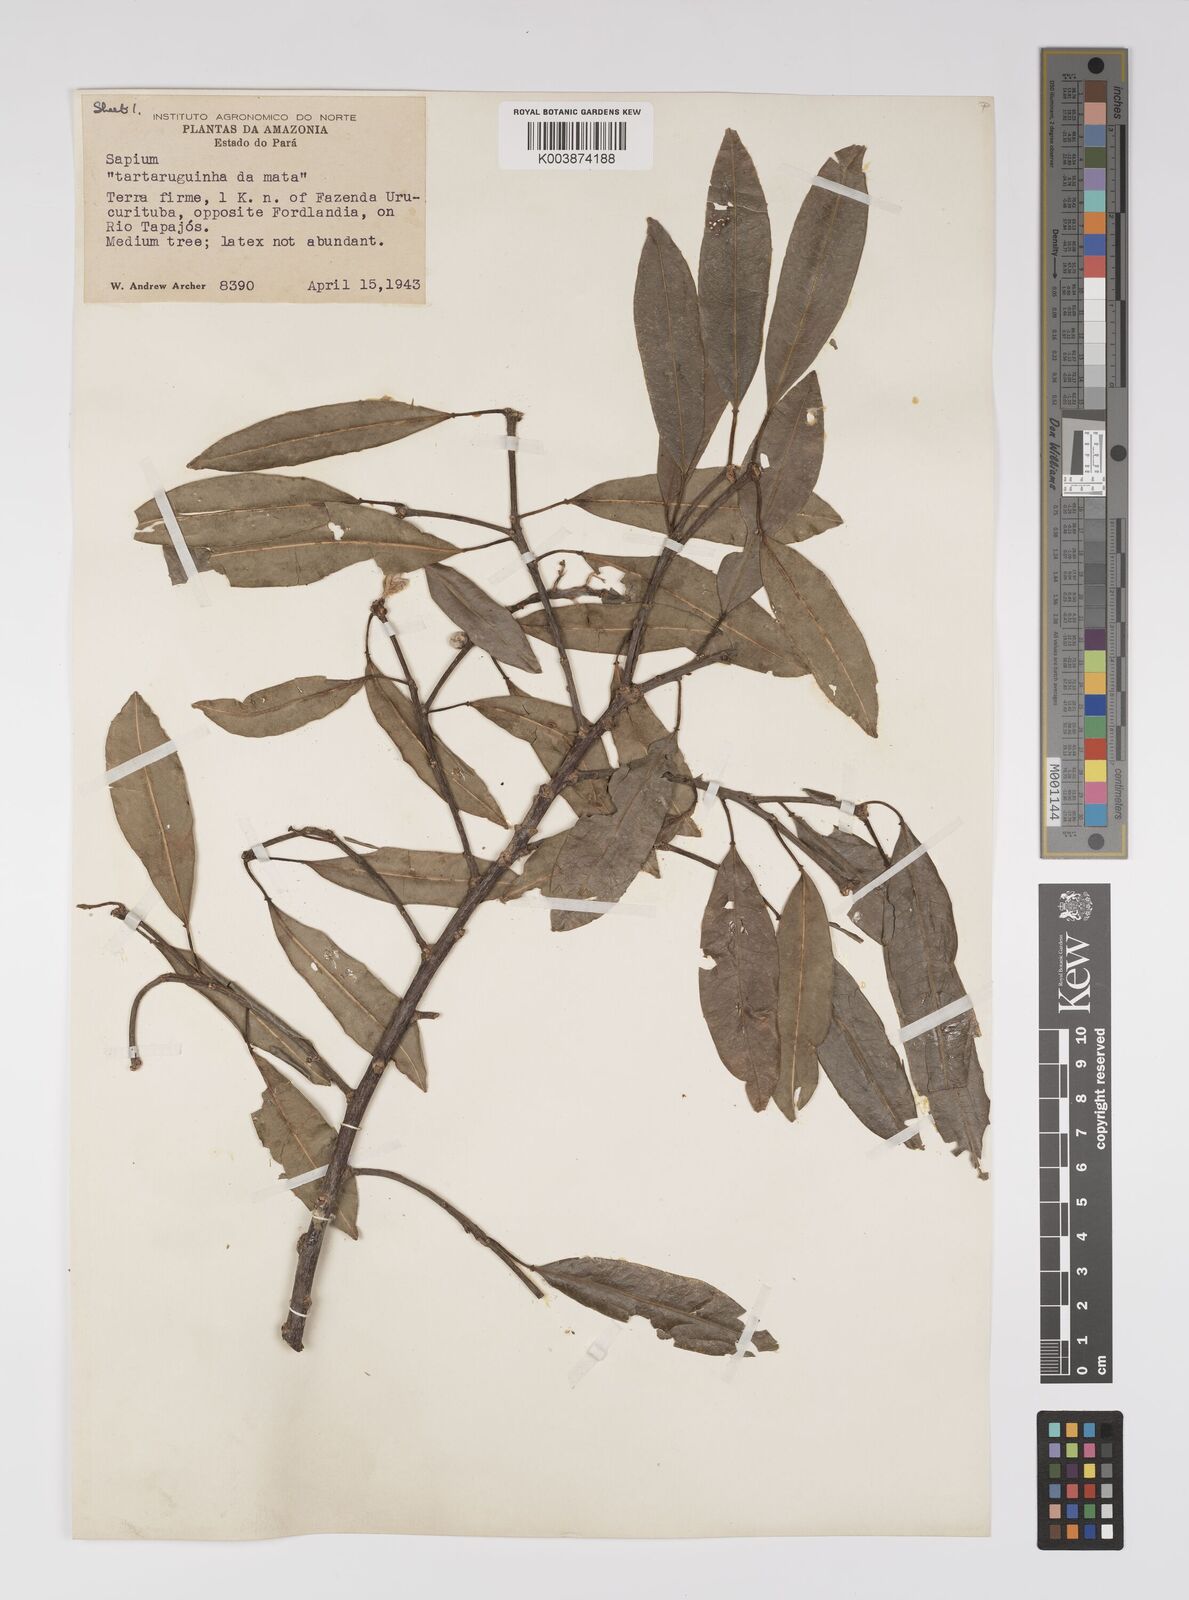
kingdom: Plantae
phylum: Tracheophyta
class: Magnoliopsida
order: Malpighiales
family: Euphorbiaceae
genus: Sapium
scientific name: Sapium
